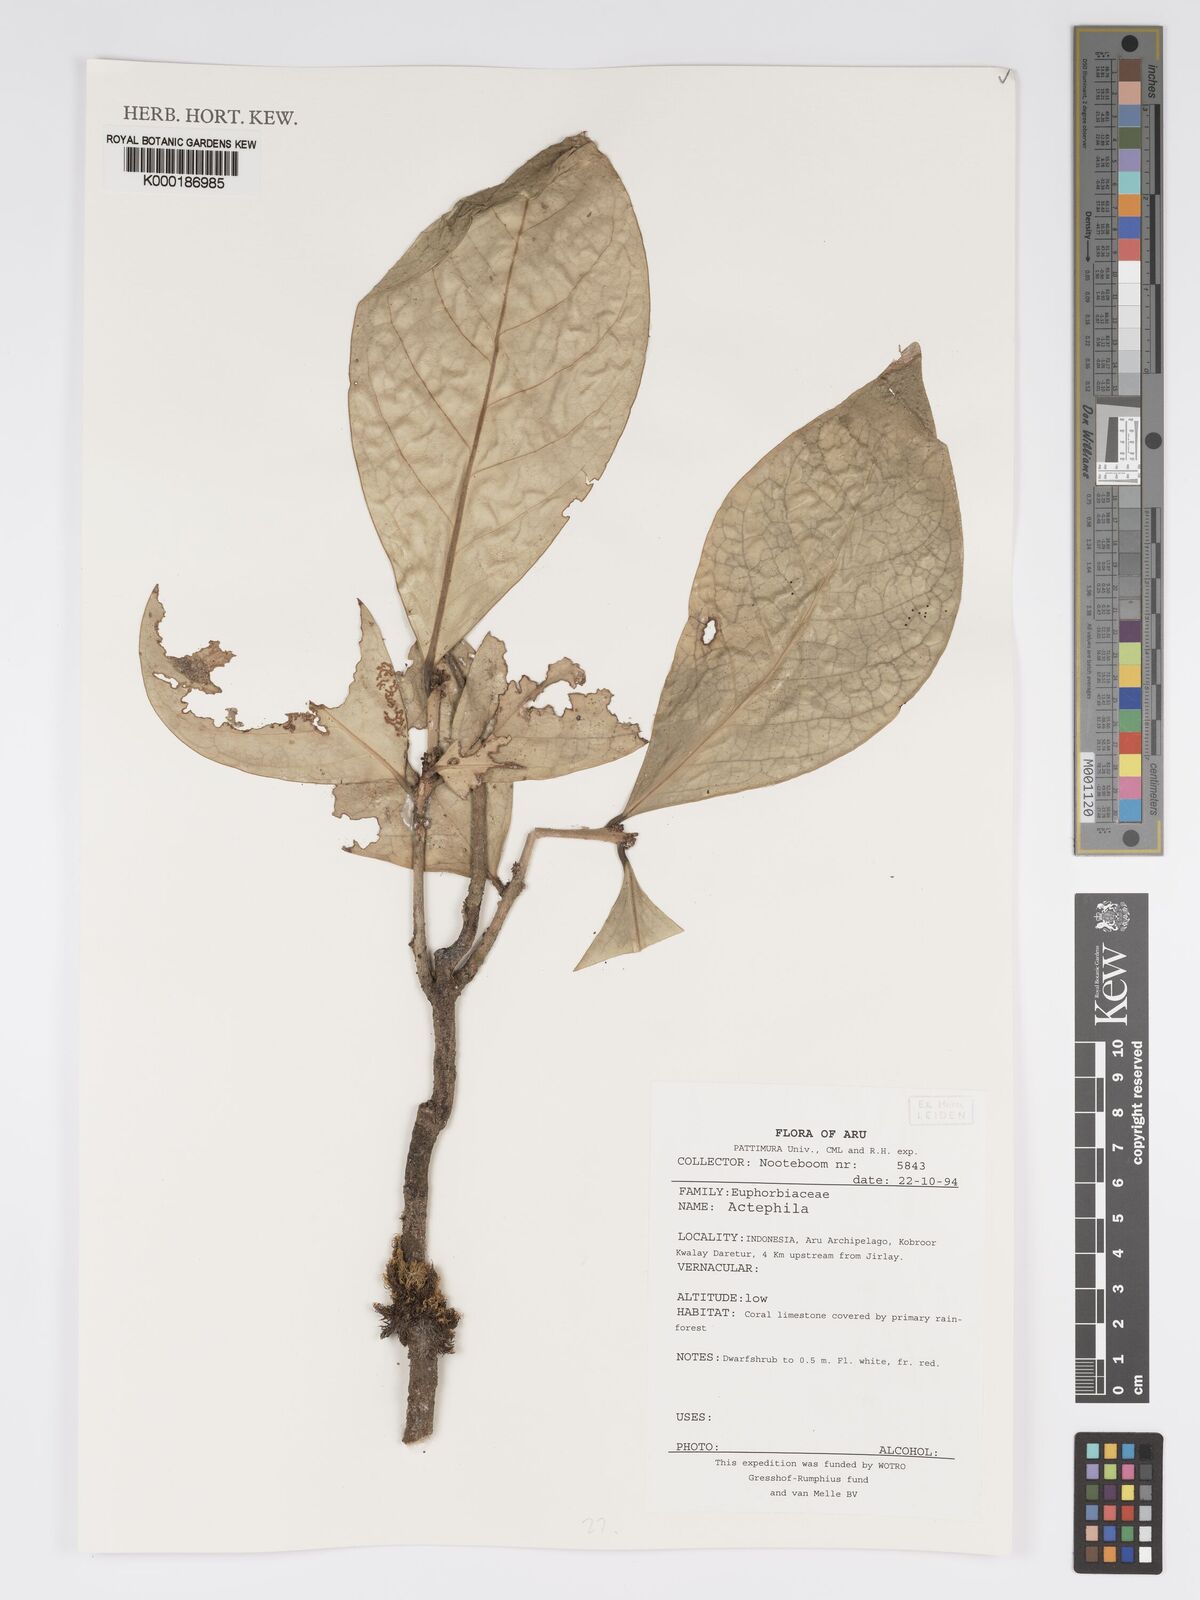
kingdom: Plantae
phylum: Tracheophyta
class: Magnoliopsida
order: Malpighiales
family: Phyllanthaceae
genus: Actephila
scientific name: Actephila
